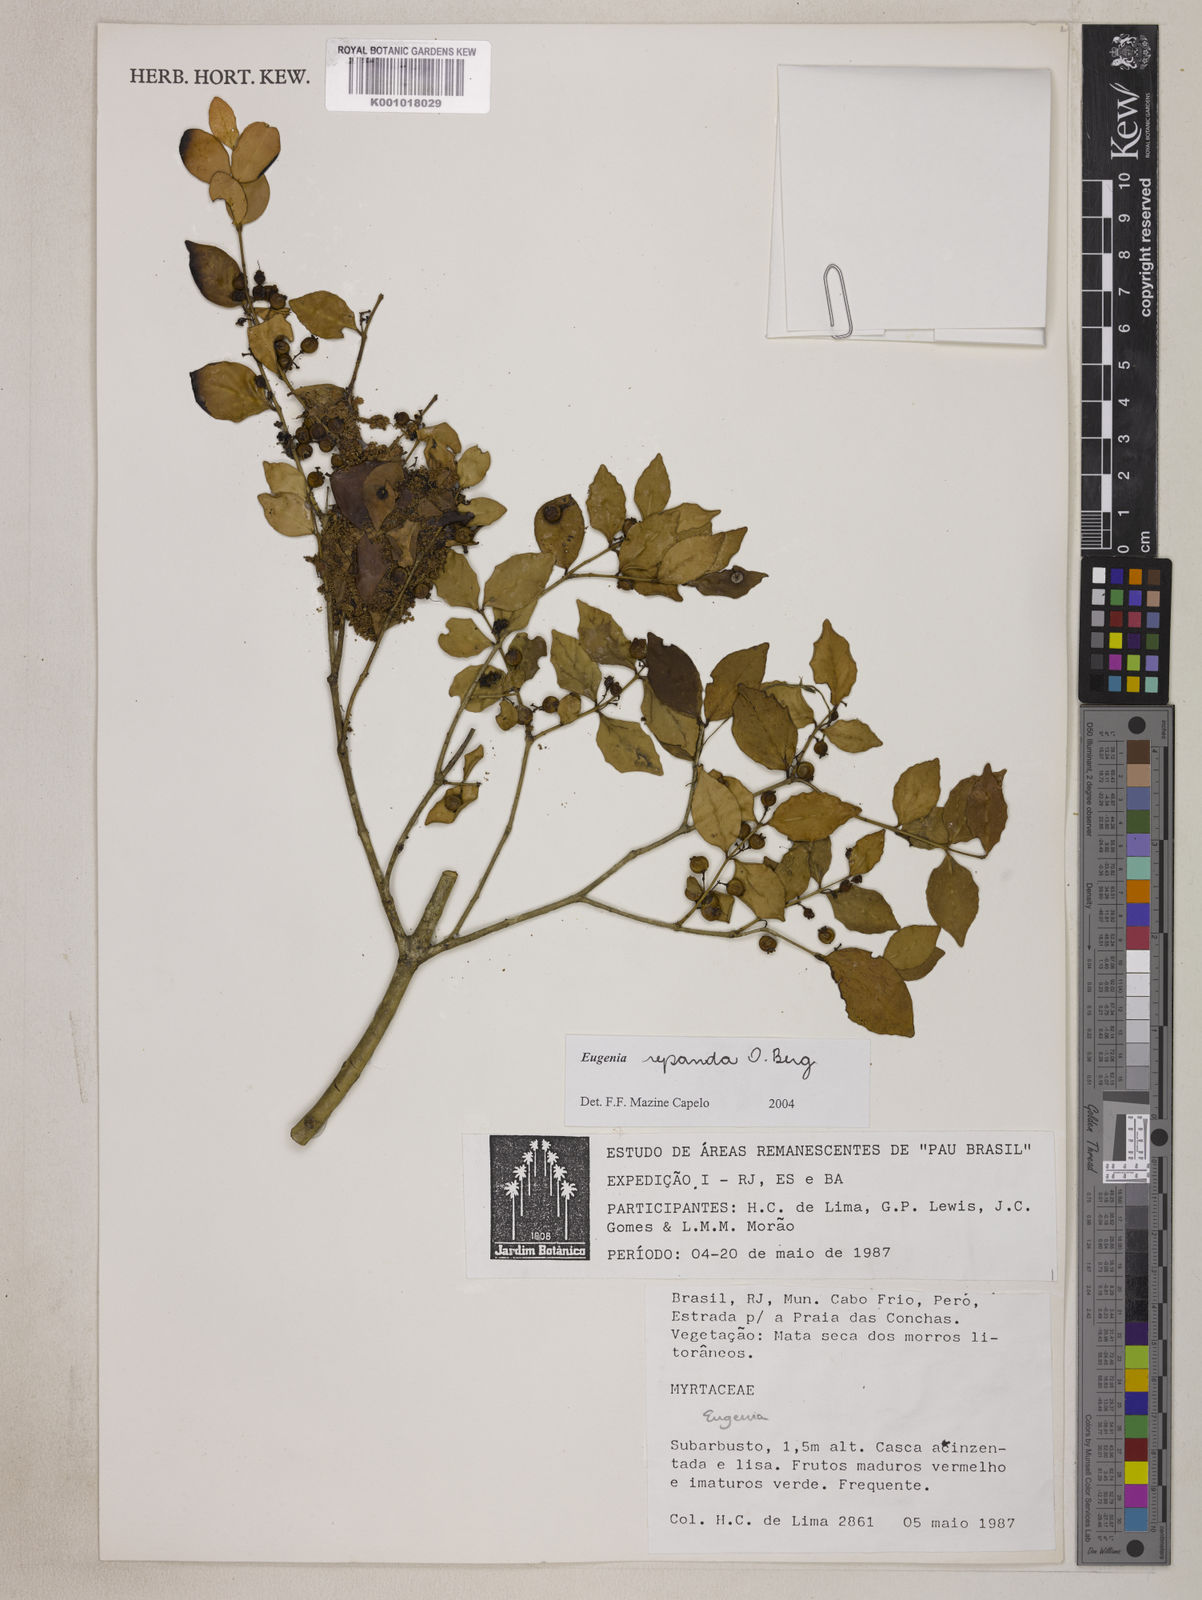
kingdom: Plantae
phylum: Tracheophyta
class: Magnoliopsida
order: Myrtales
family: Myrtaceae
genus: Eugenia
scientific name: Eugenia repanda
